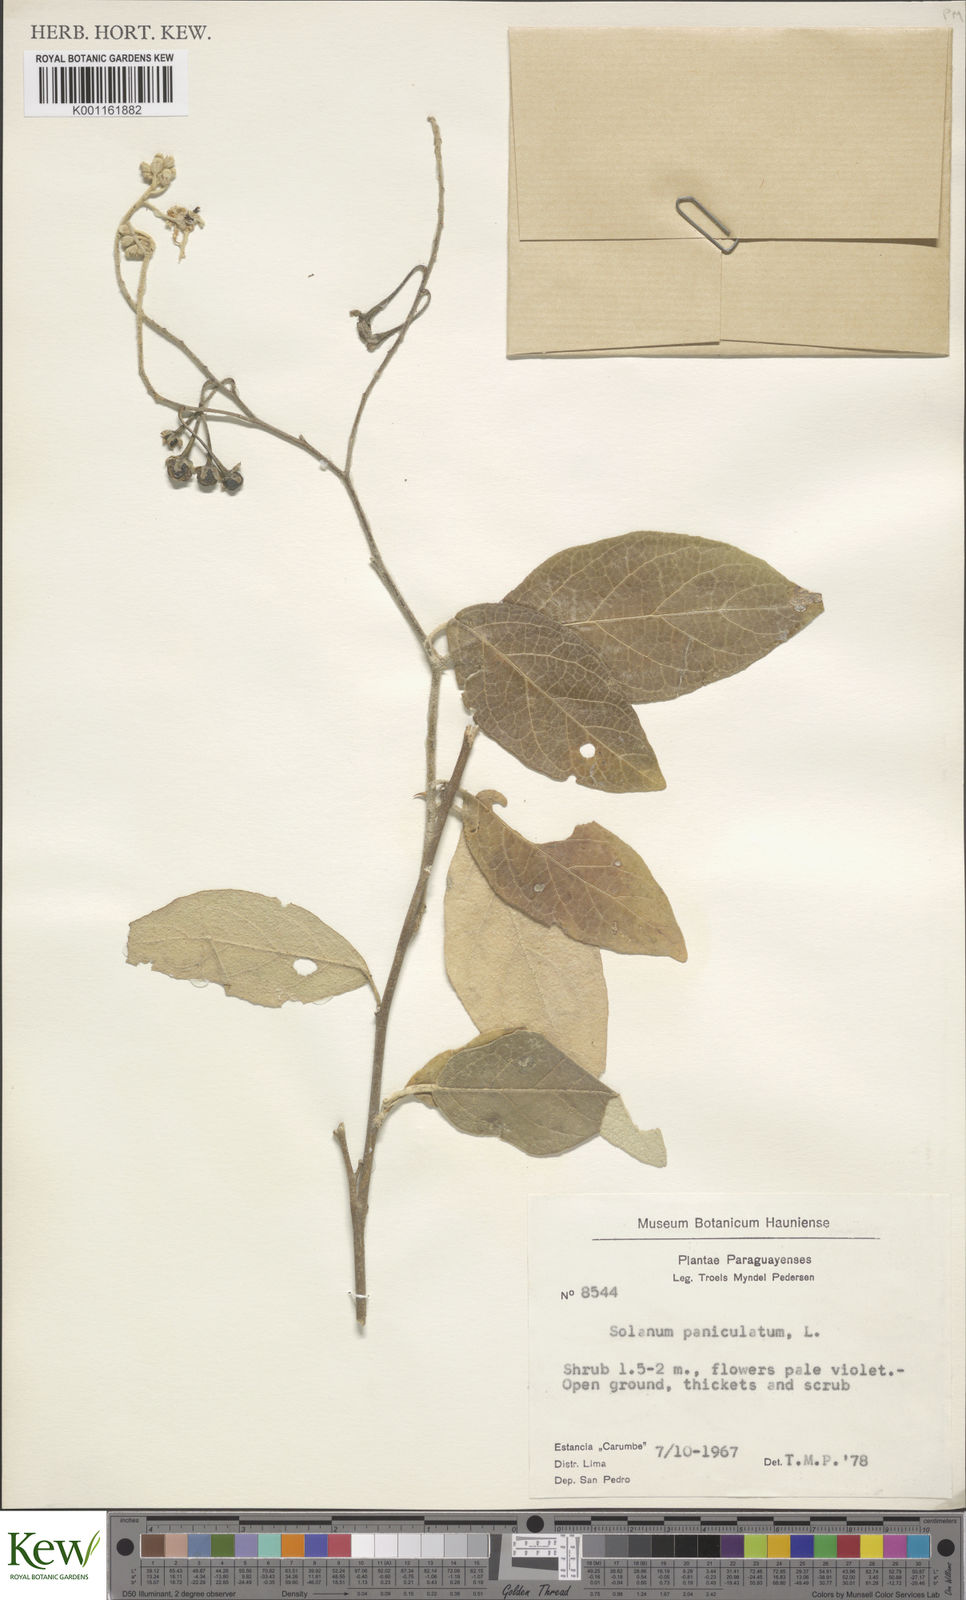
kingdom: Plantae
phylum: Tracheophyta
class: Magnoliopsida
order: Solanales
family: Solanaceae
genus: Solanum
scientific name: Solanum paniculatum
